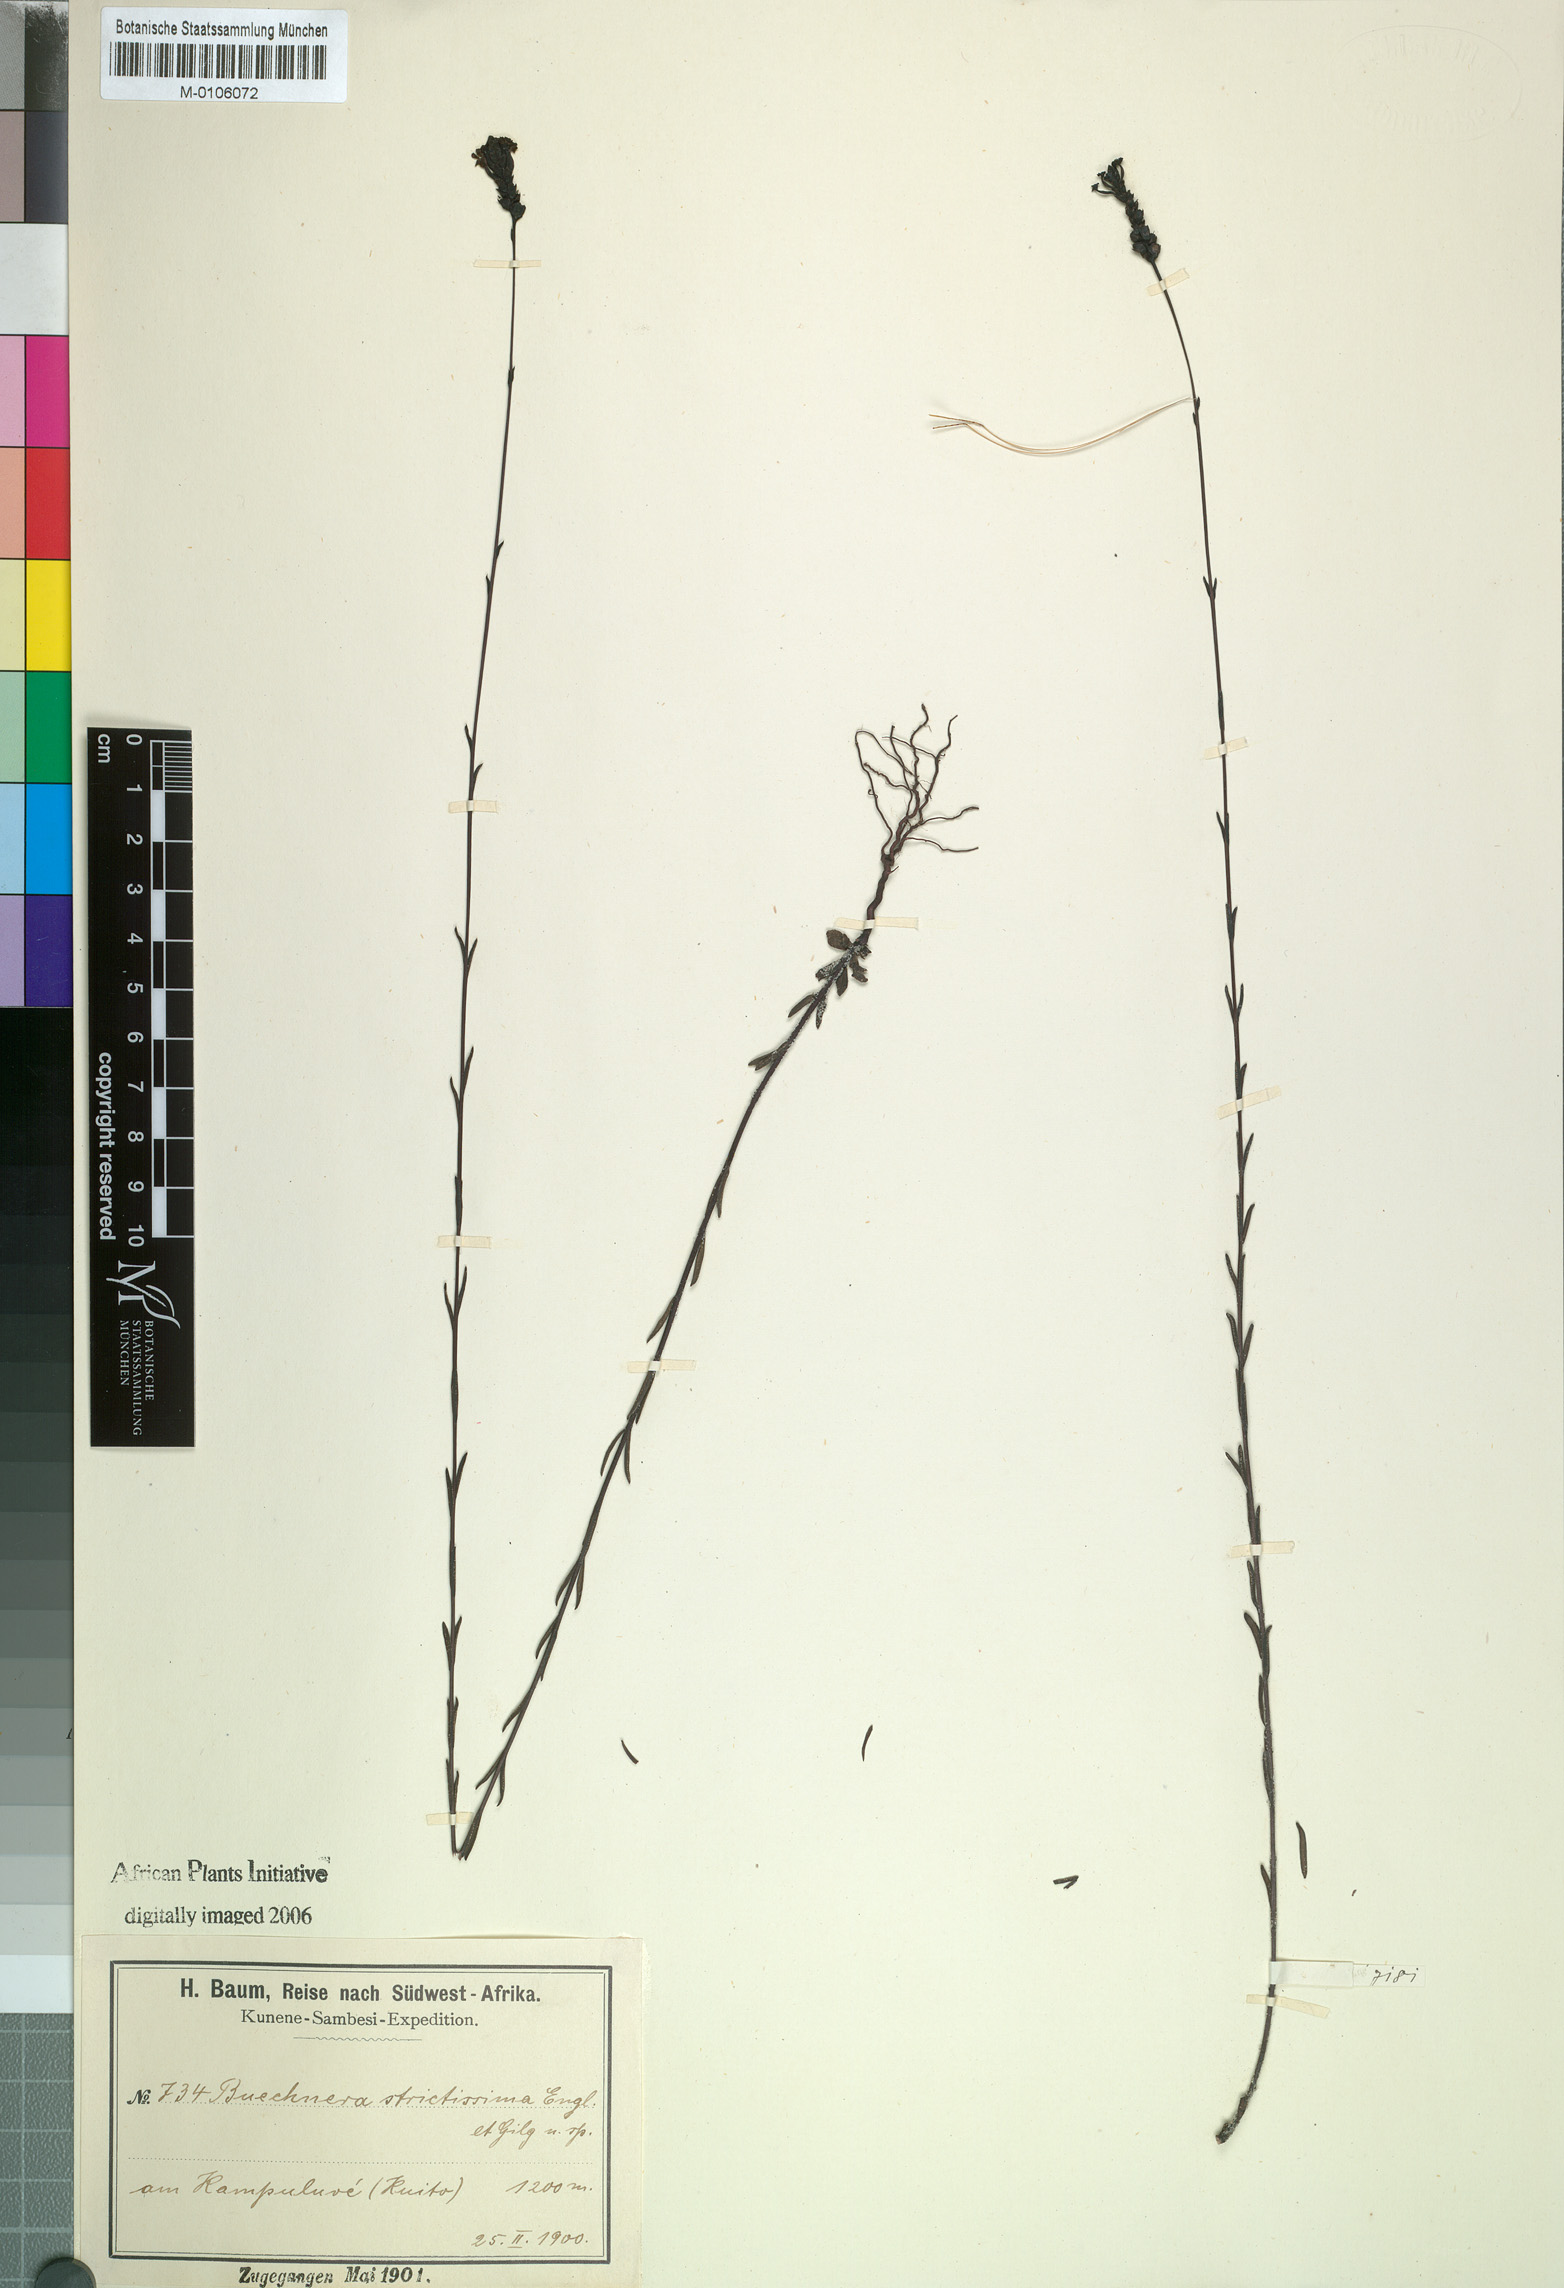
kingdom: Plantae
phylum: Tracheophyta
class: Magnoliopsida
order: Lamiales
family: Orobanchaceae
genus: Buchnera
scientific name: Buchnera strictissima
